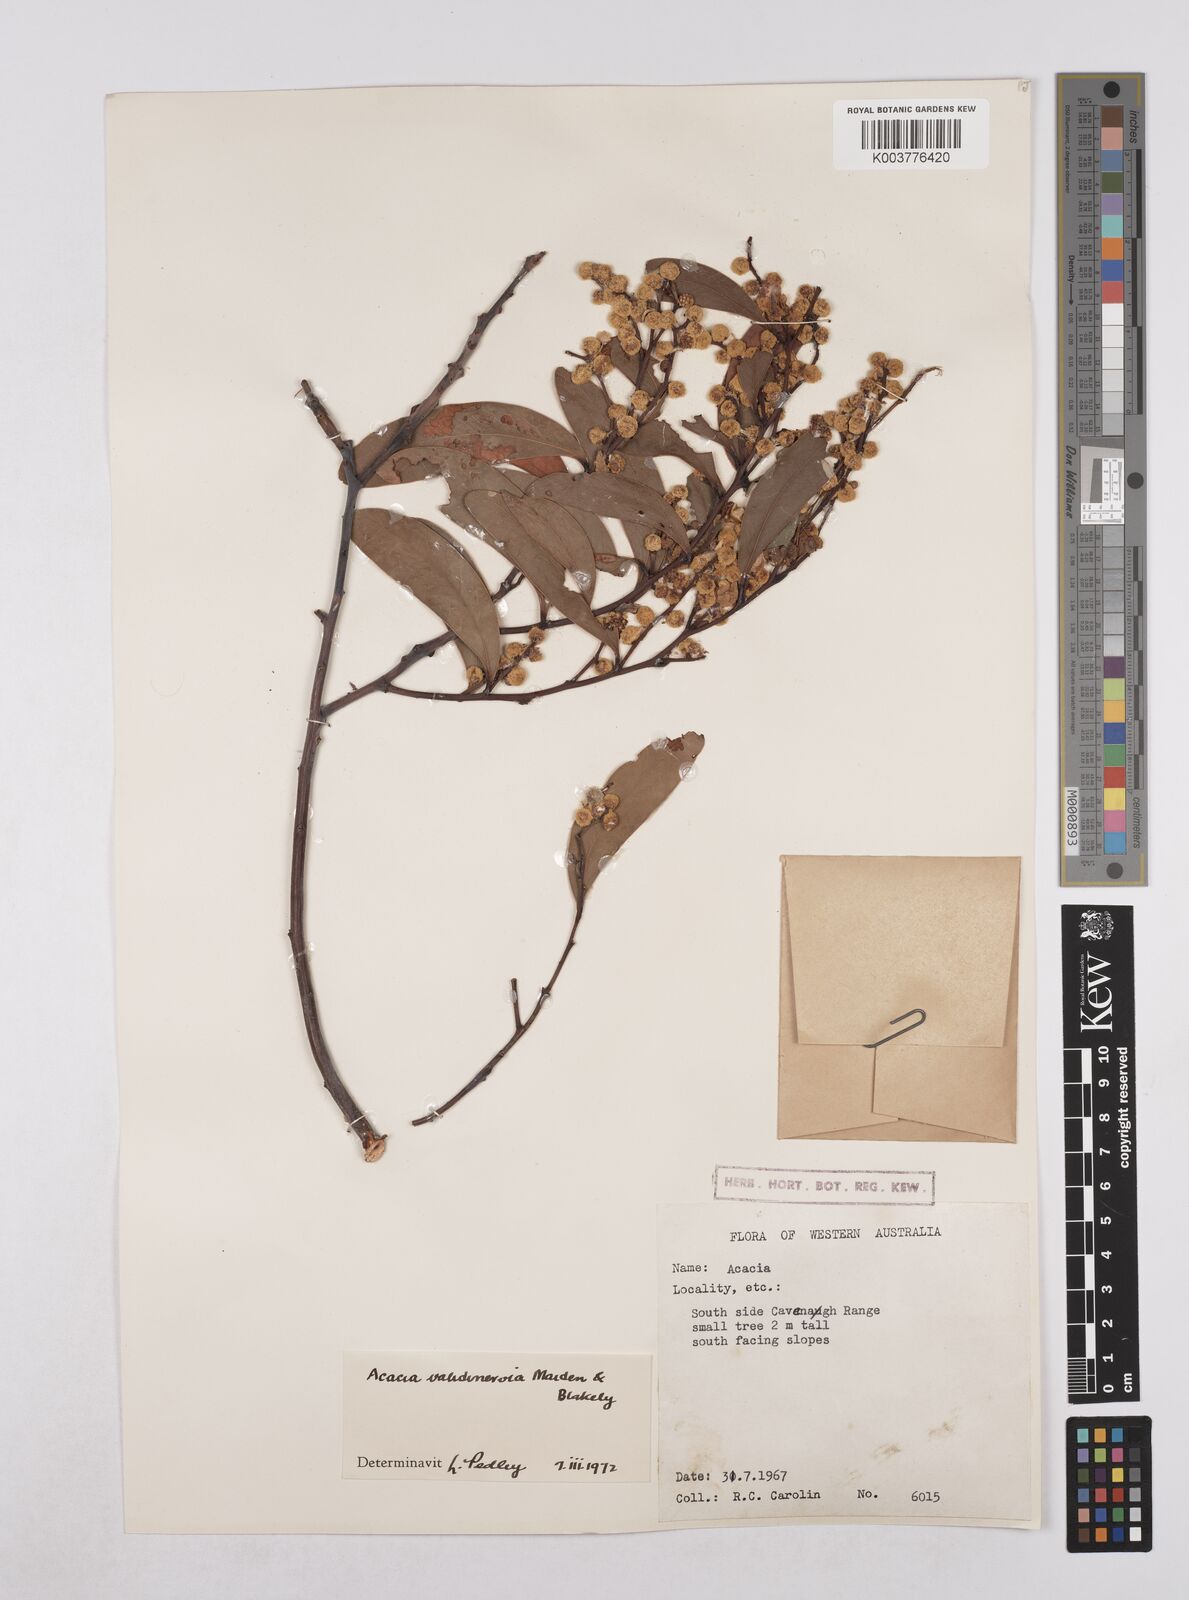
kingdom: Plantae
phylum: Tracheophyta
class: Magnoliopsida
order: Fabales
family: Fabaceae
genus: Acacia
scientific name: Acacia validinervia
